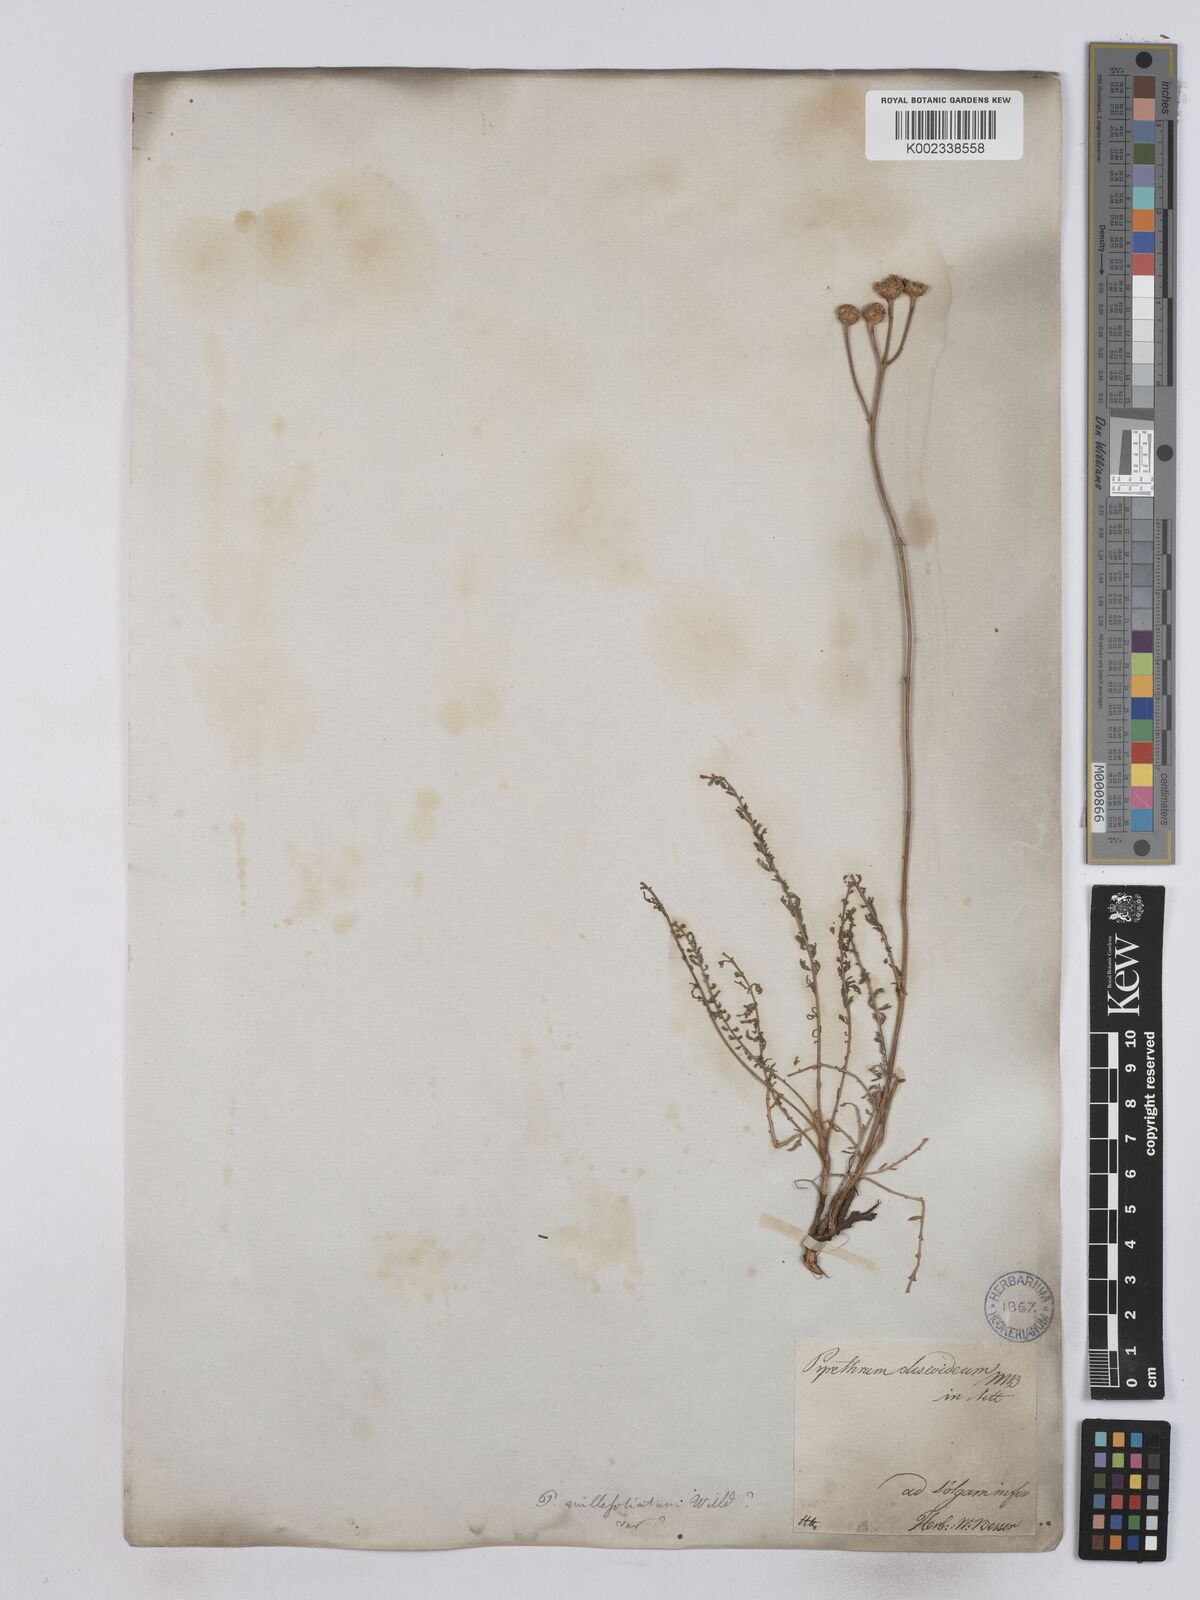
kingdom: Plantae
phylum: Tracheophyta
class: Magnoliopsida
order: Asterales
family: Asteraceae
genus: Tanacetum
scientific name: Tanacetum millefolium
